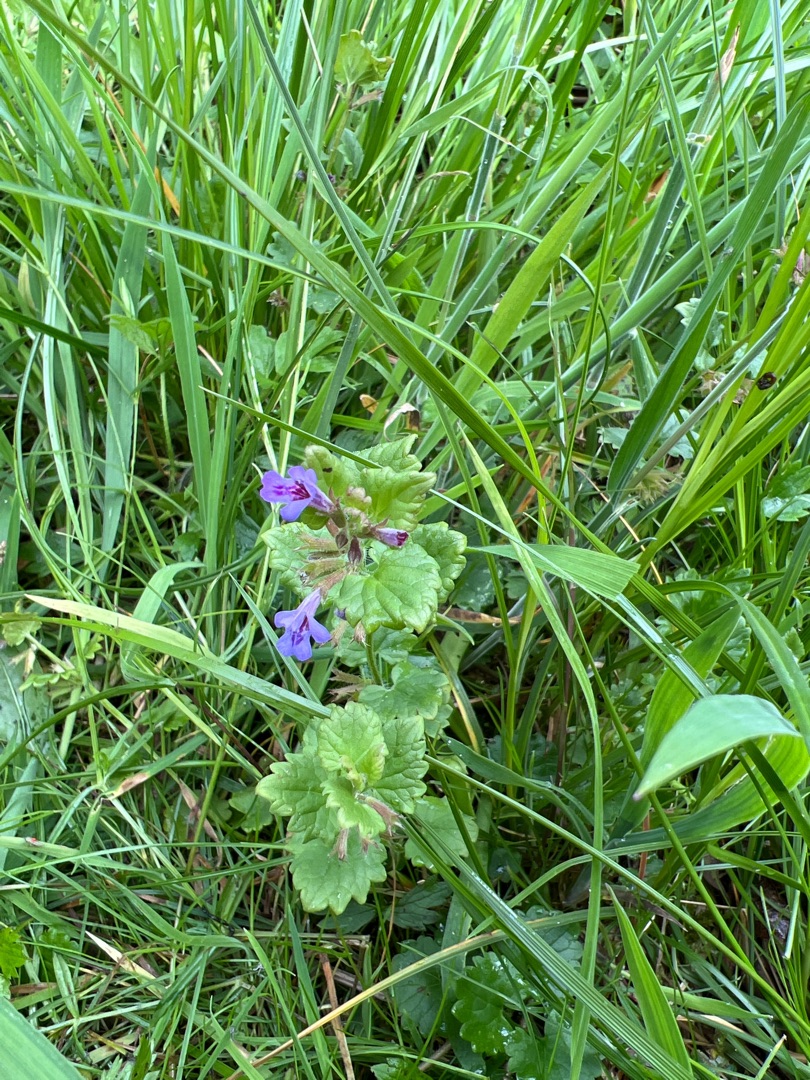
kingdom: Plantae
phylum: Tracheophyta
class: Magnoliopsida
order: Lamiales
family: Lamiaceae
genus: Glechoma
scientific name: Glechoma hederacea
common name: Korsknap
